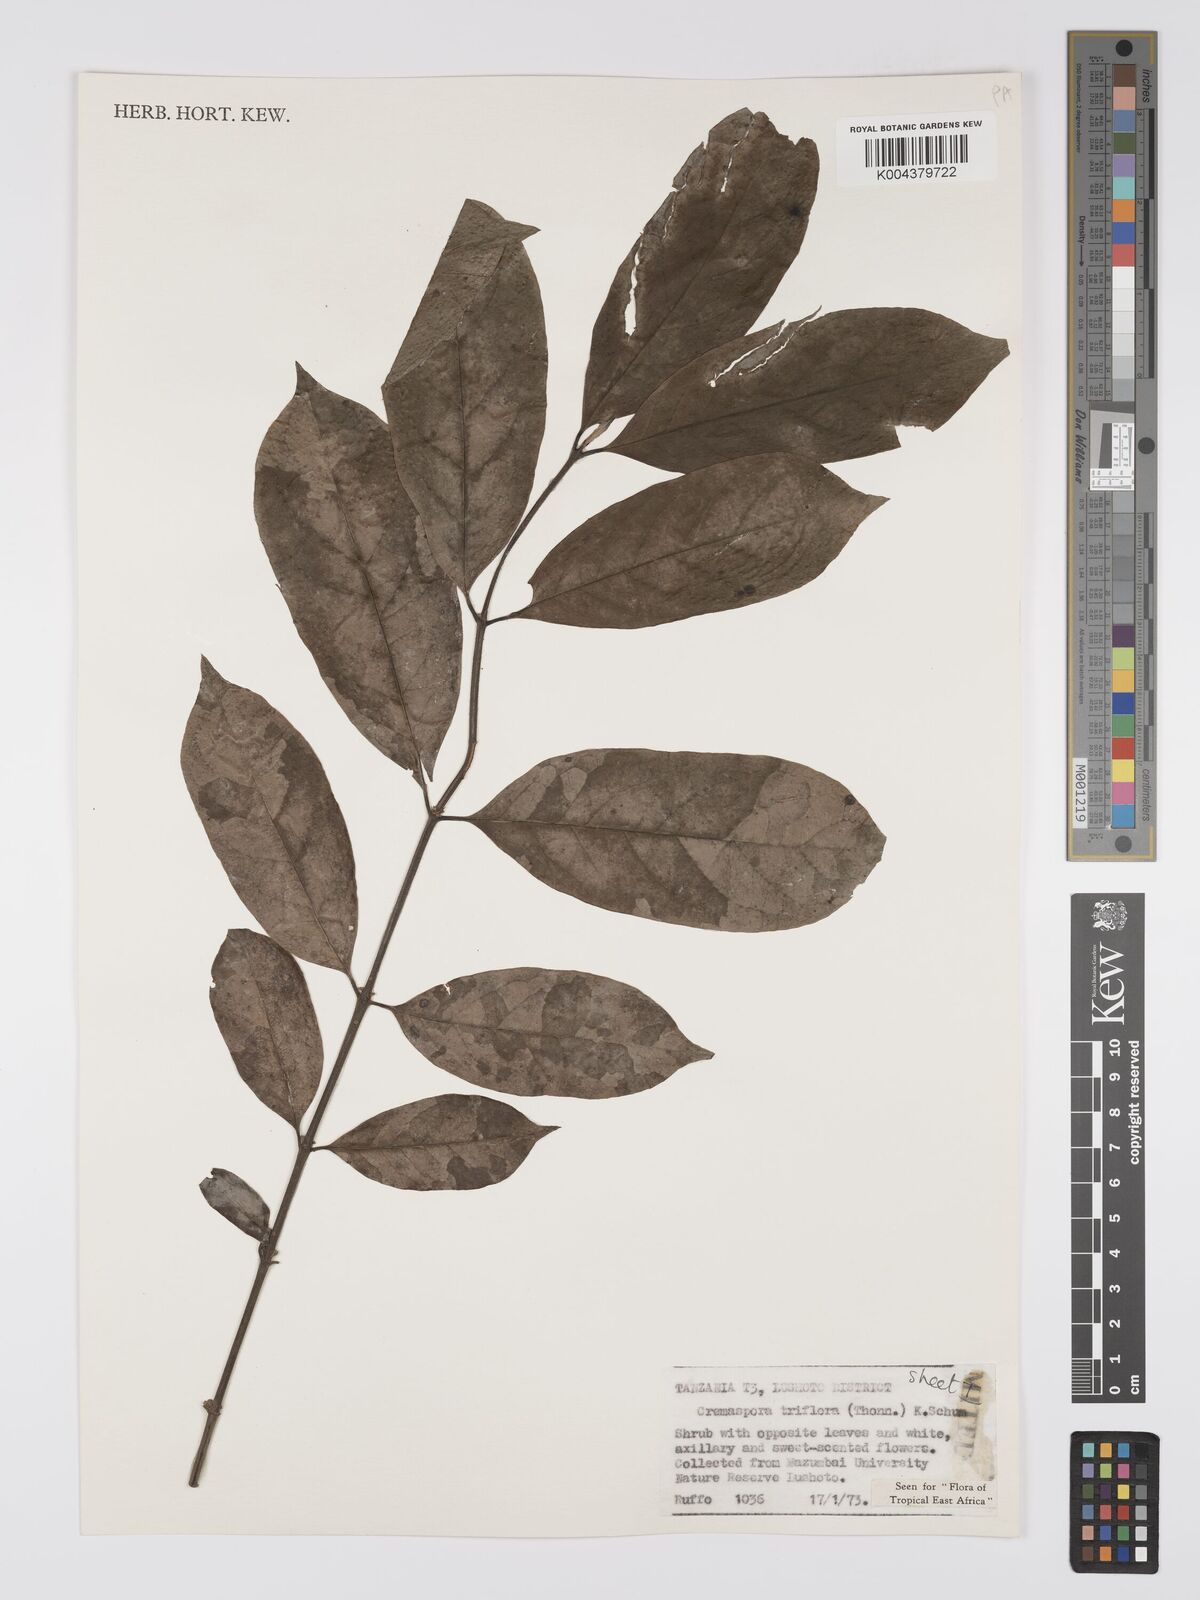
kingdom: Plantae
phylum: Tracheophyta
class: Magnoliopsida
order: Gentianales
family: Rubiaceae
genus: Cremaspora
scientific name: Cremaspora triflora
